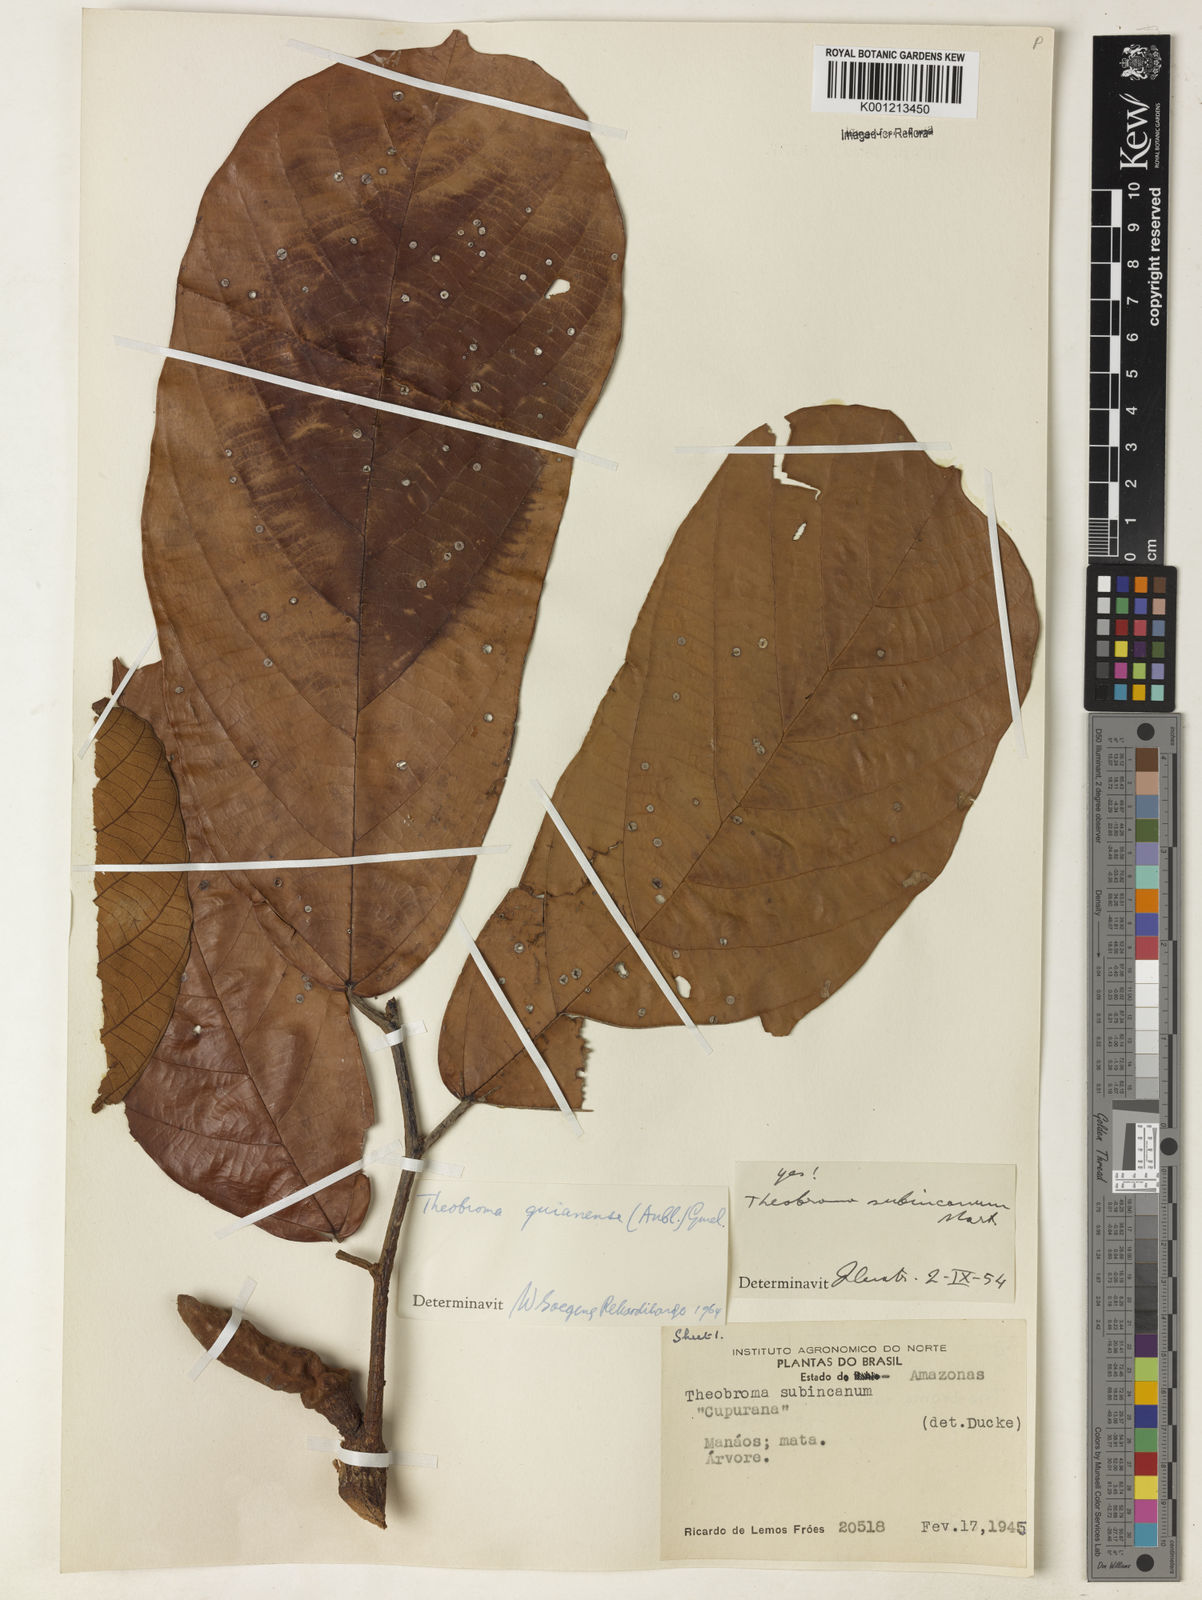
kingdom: Plantae
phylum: Tracheophyta
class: Magnoliopsida
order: Malvales
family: Malvaceae
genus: Theobroma
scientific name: Theobroma subincanum
